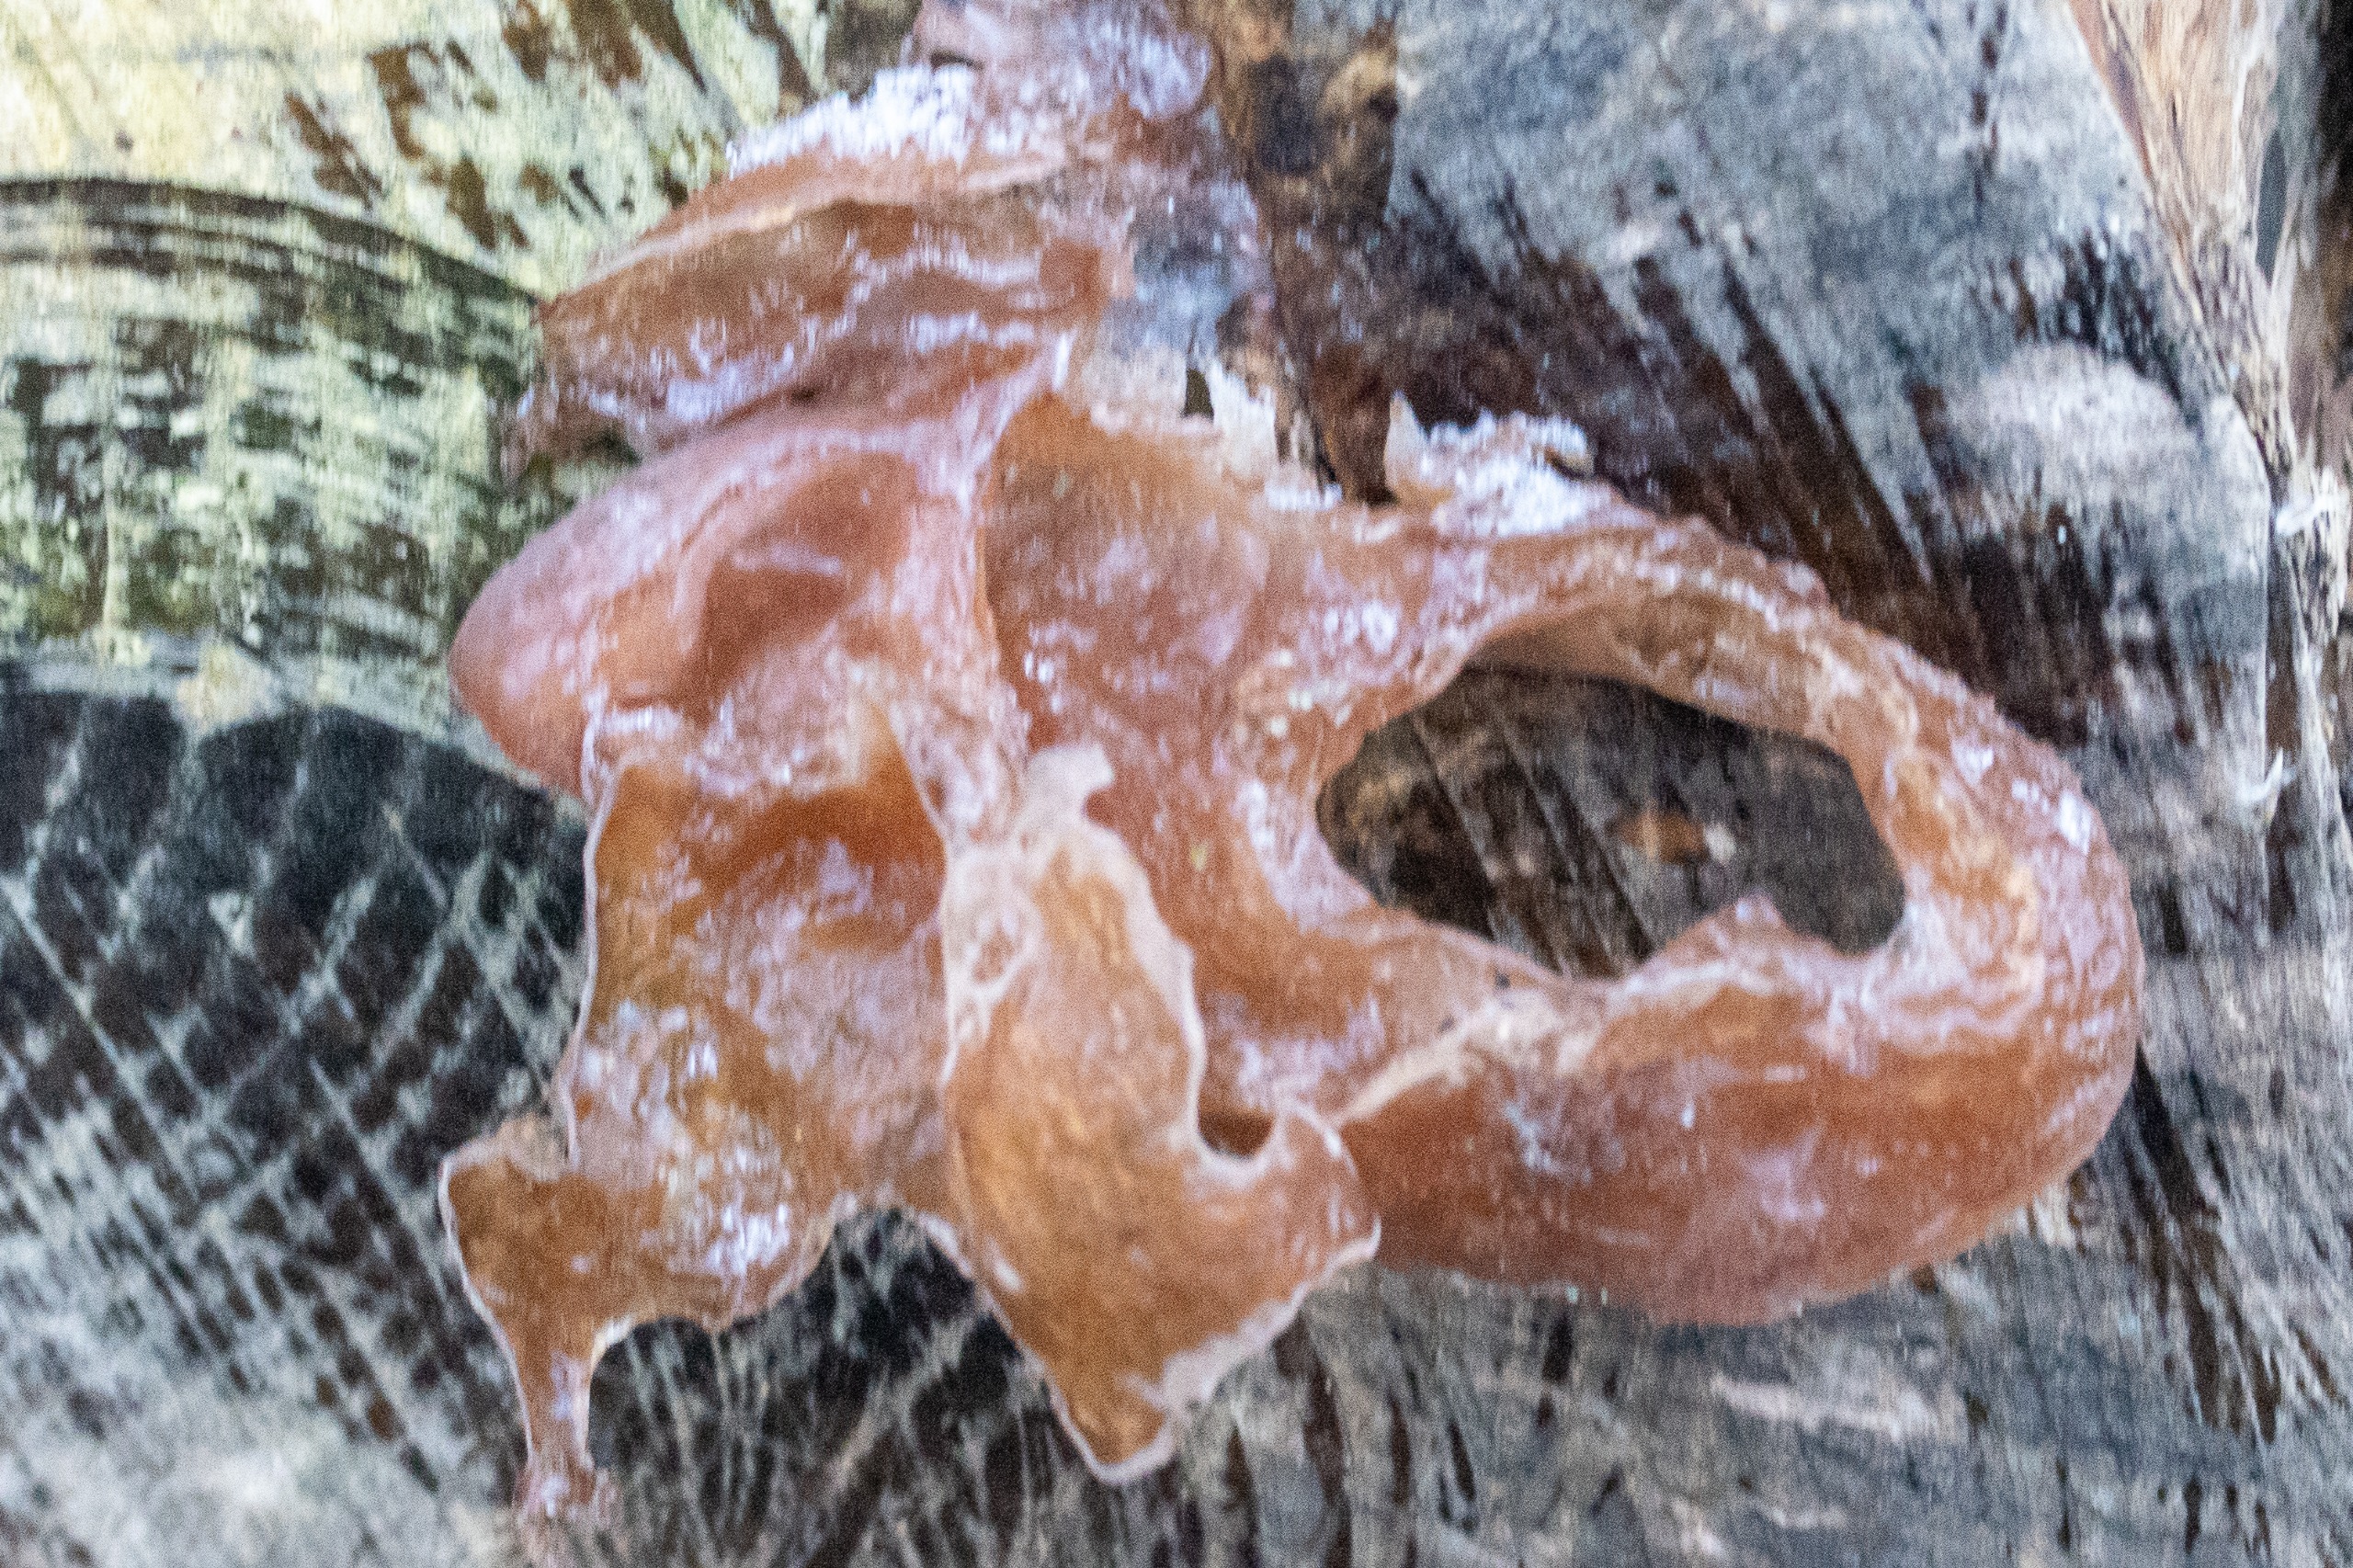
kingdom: Fungi
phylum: Basidiomycota
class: Agaricomycetes
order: Auriculariales
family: Auriculariaceae
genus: Auricularia
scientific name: Auricularia auricula-judae
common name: Almindelig judasøre
